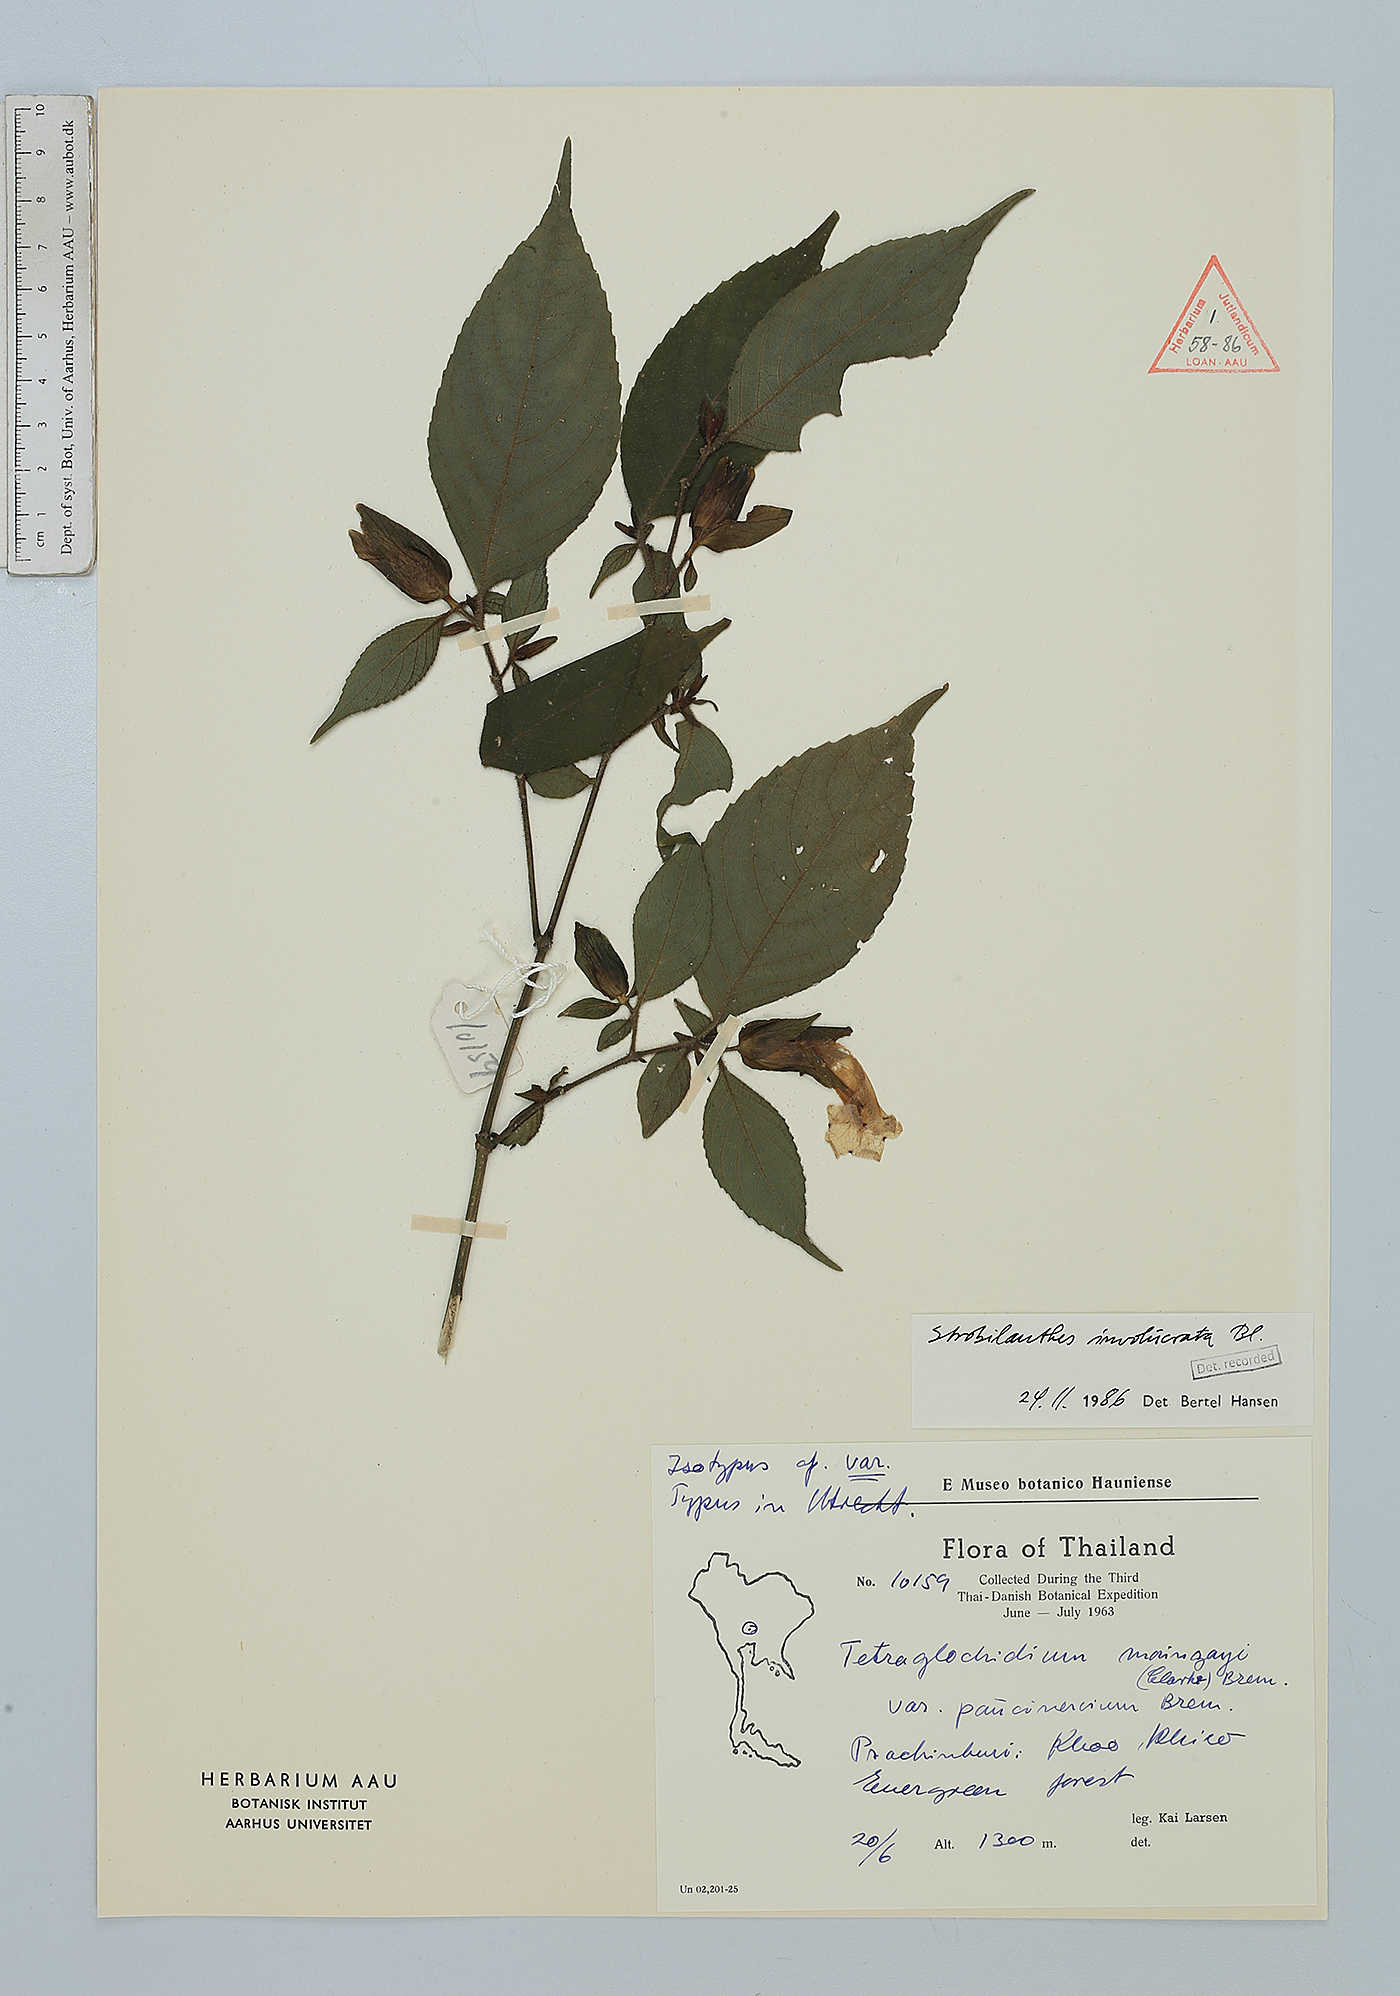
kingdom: Plantae
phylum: Tracheophyta
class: Magnoliopsida
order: Lamiales
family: Acanthaceae
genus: Strobilanthes
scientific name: Strobilanthes involucrata
